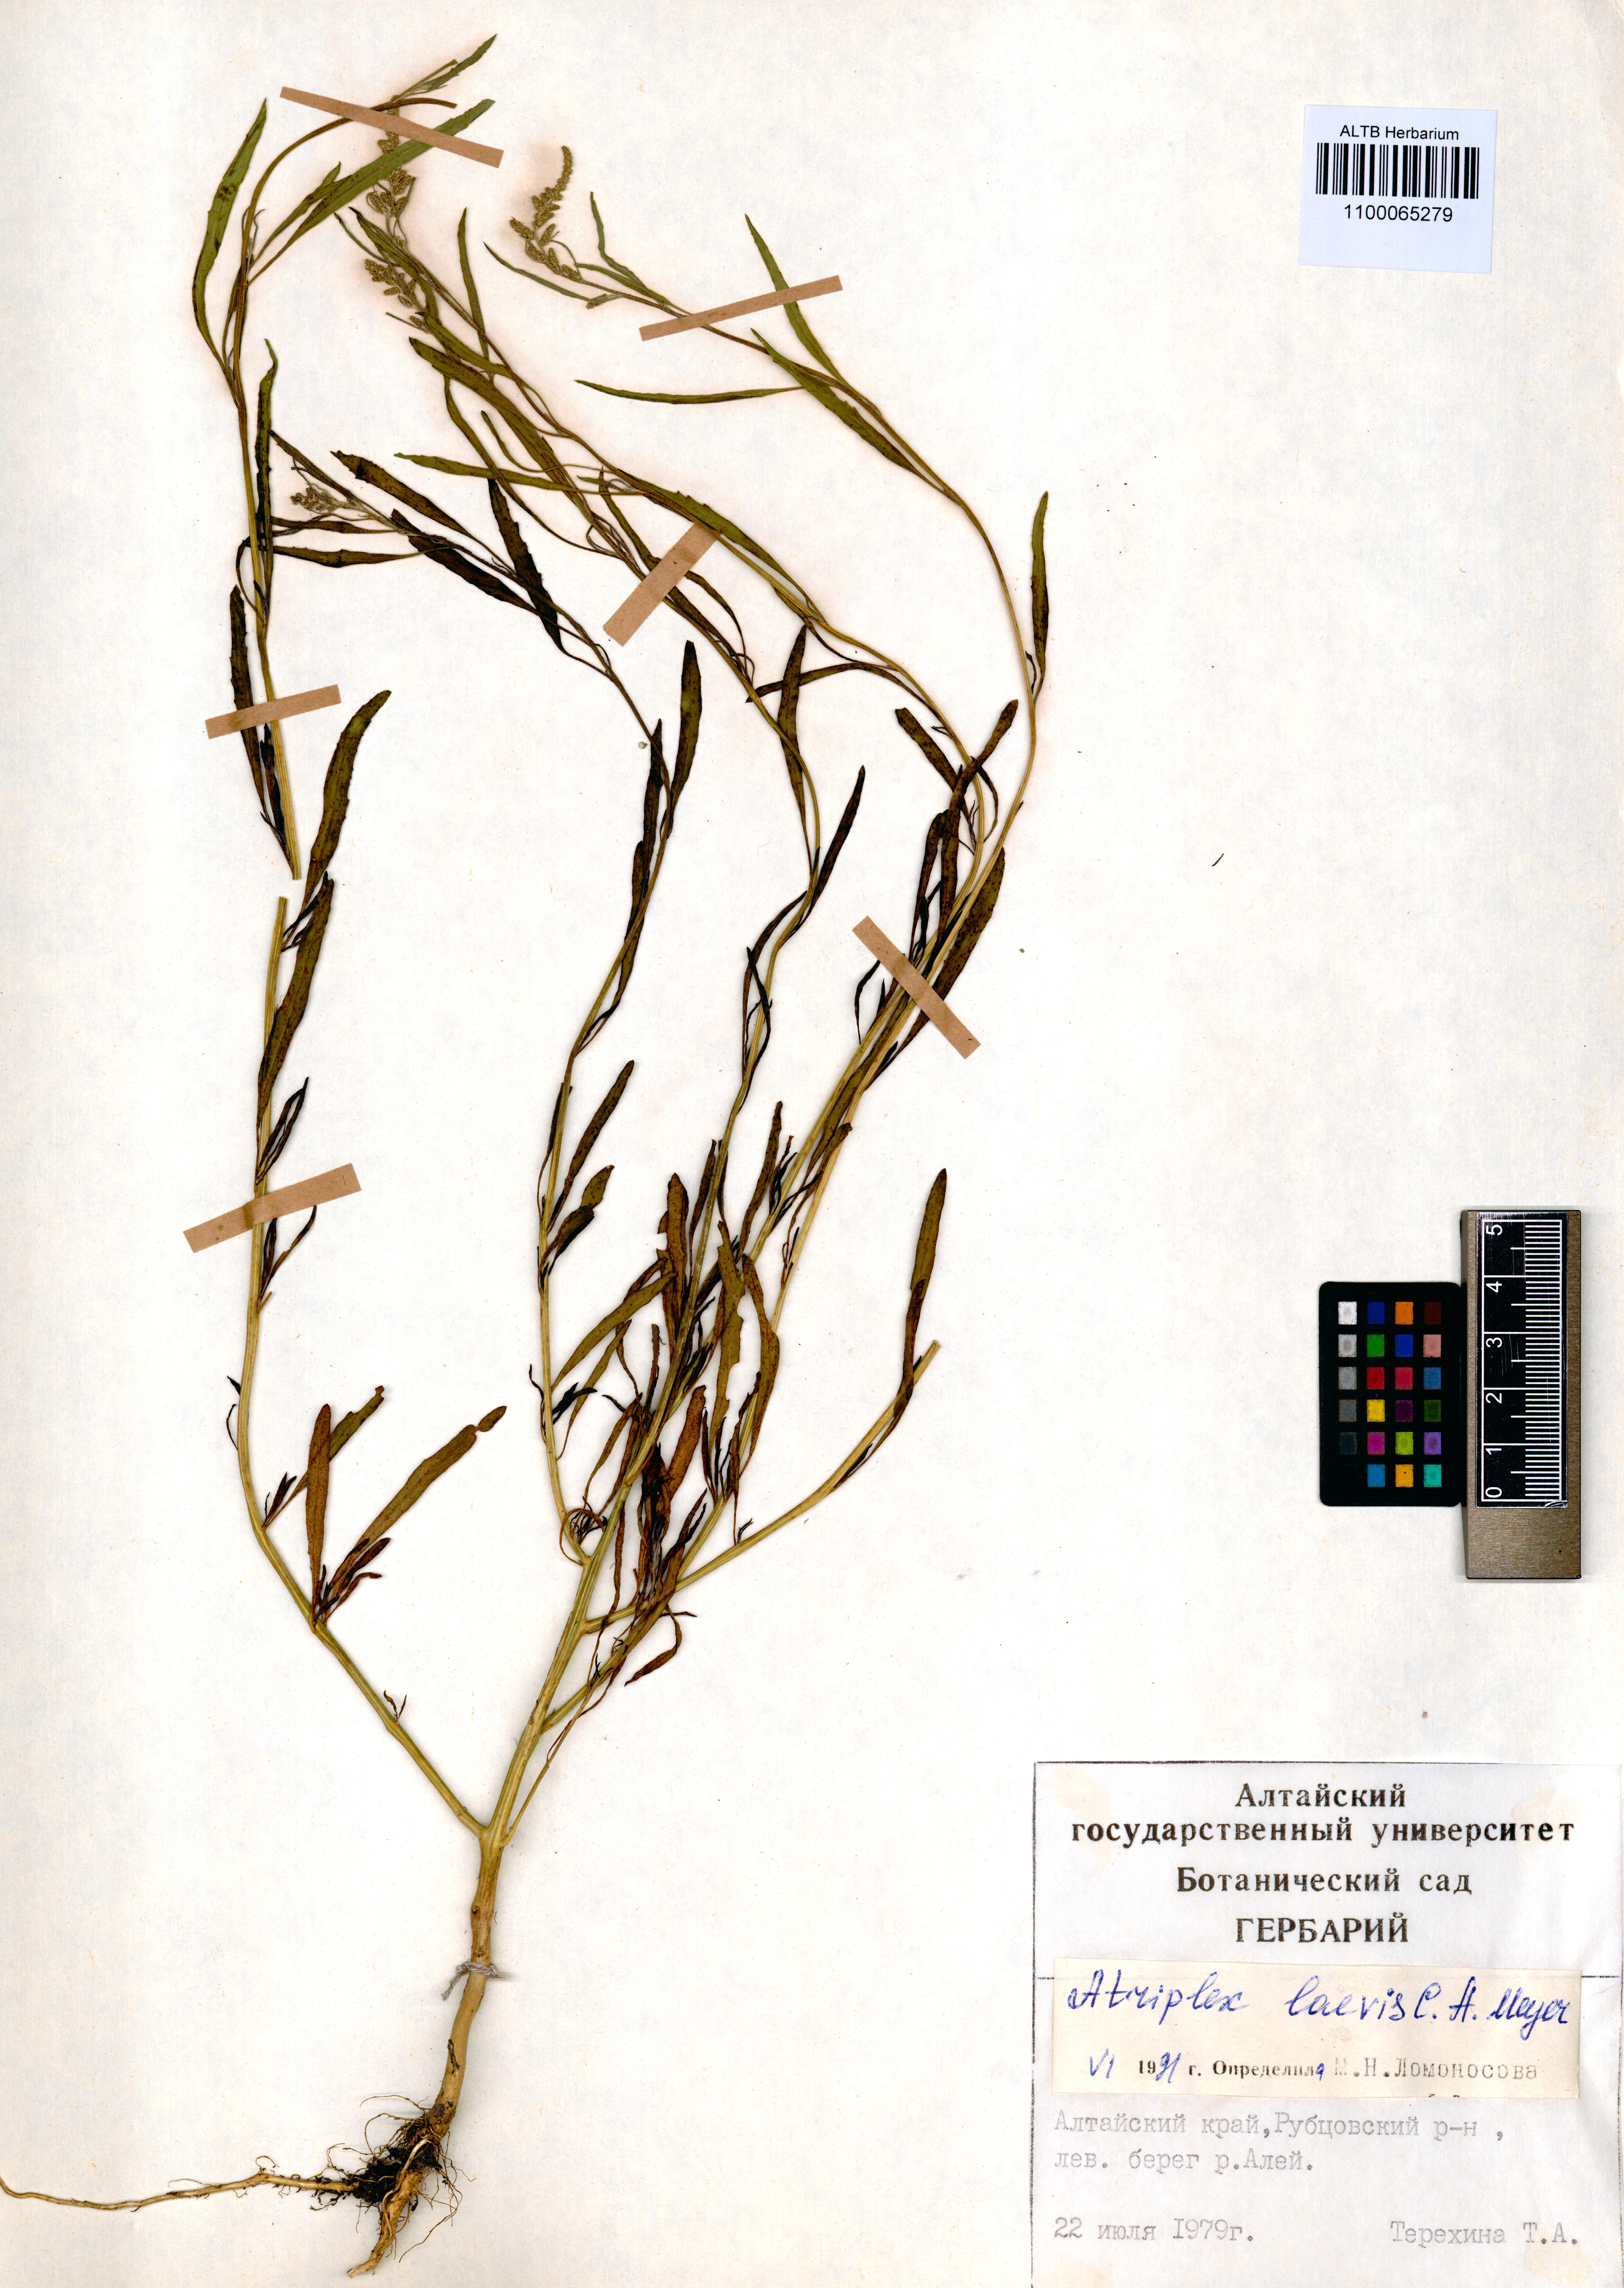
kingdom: Plantae
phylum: Tracheophyta
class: Magnoliopsida
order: Caryophyllales
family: Amaranthaceae
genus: Atriplex
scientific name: Atriplex laevis
